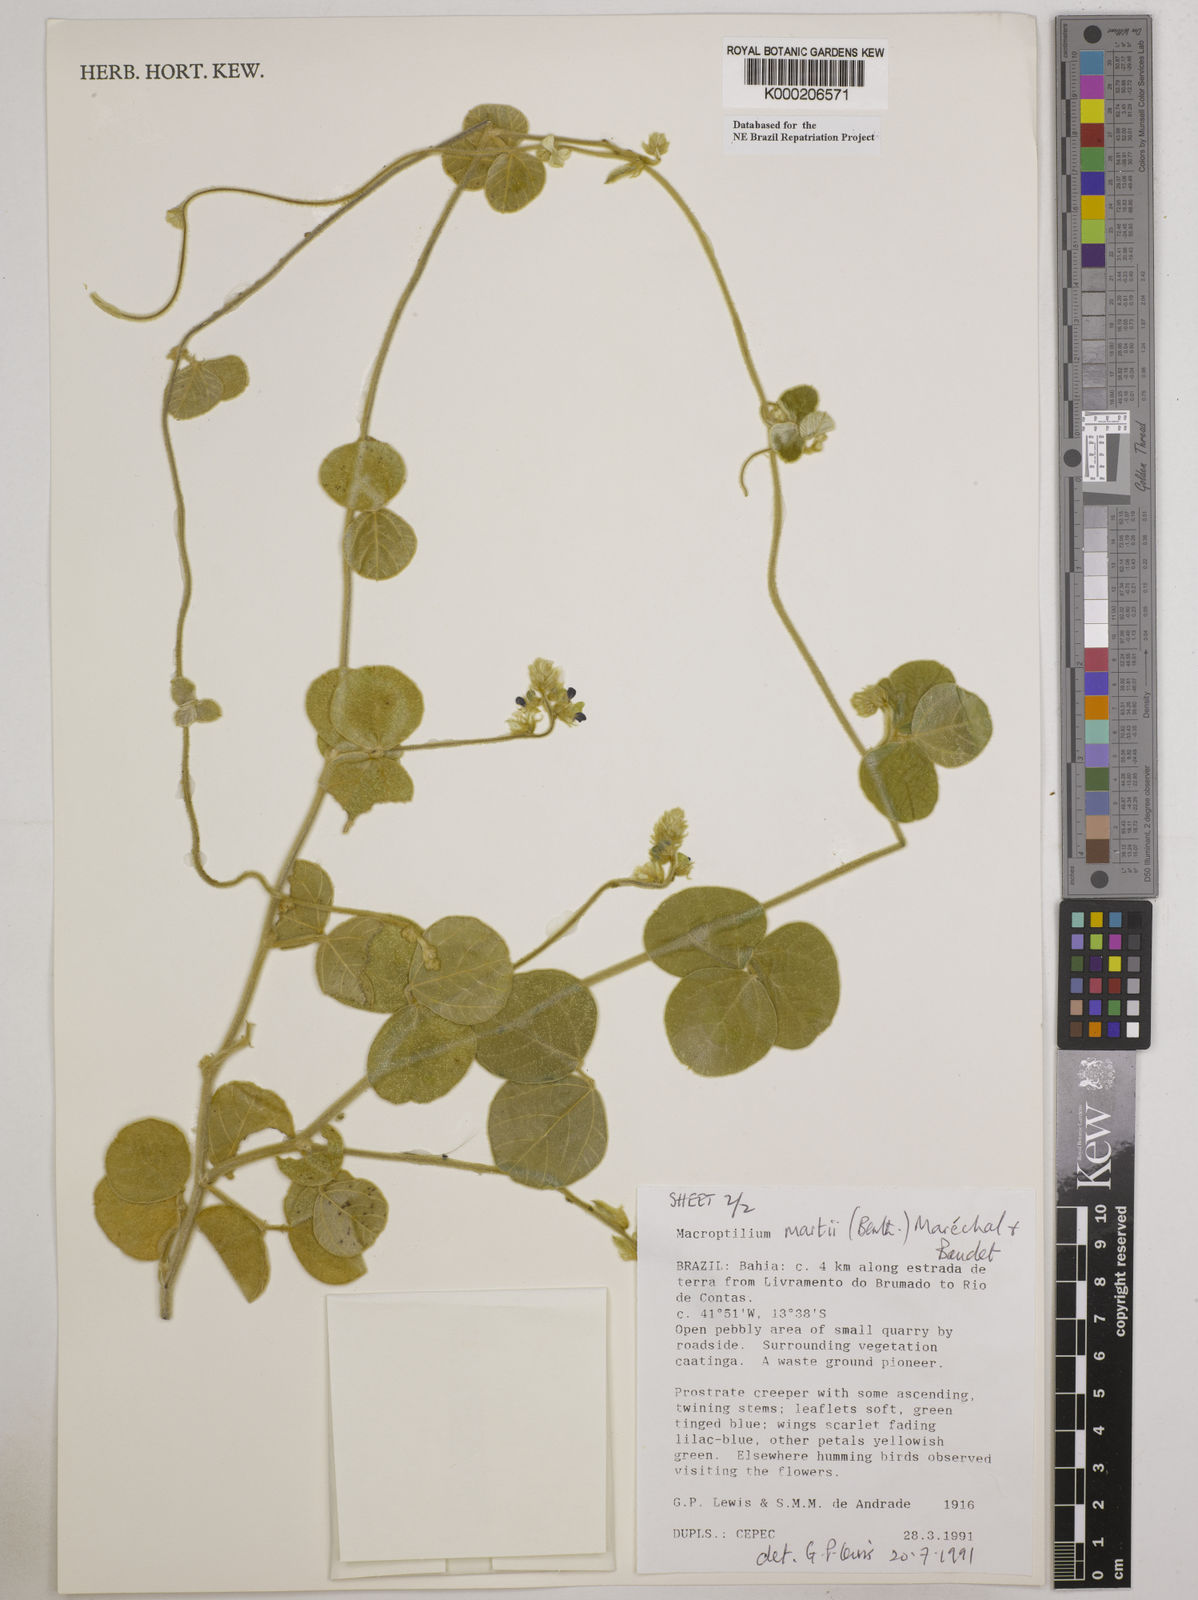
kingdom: Plantae
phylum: Tracheophyta
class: Magnoliopsida
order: Fabales
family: Fabaceae
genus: Macroptilium
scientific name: Macroptilium
